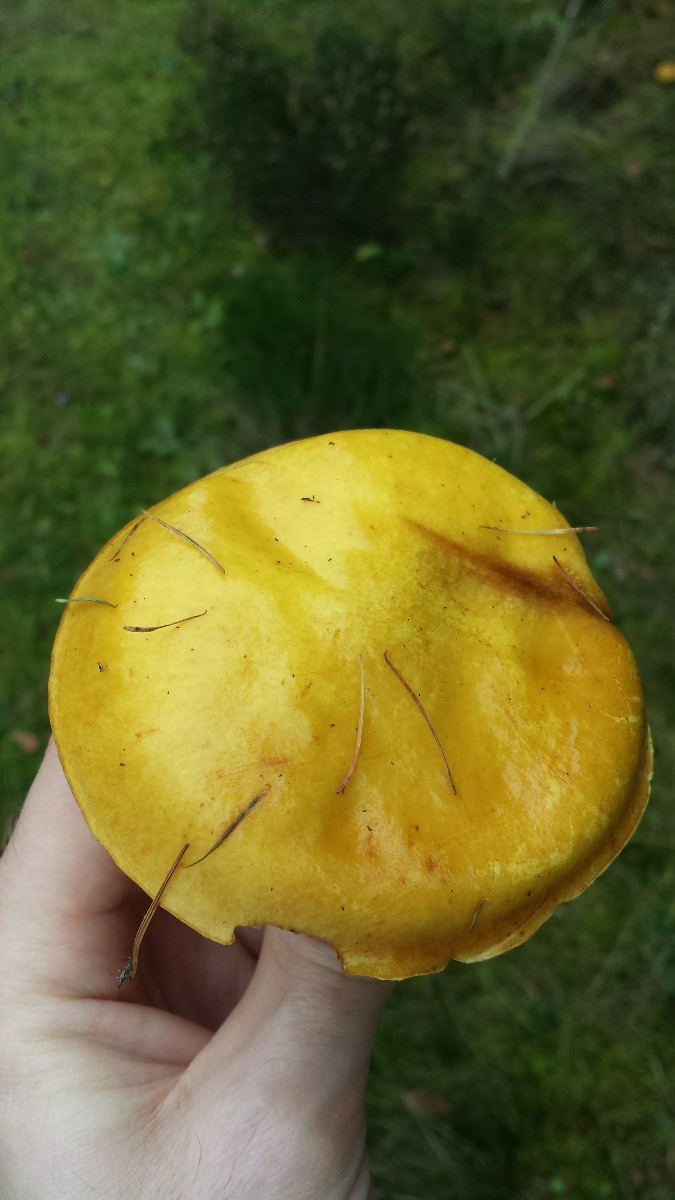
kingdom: Fungi
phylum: Basidiomycota
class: Agaricomycetes
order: Boletales
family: Suillaceae
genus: Suillus
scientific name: Suillus grevillei
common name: lærke-slimrørhat
